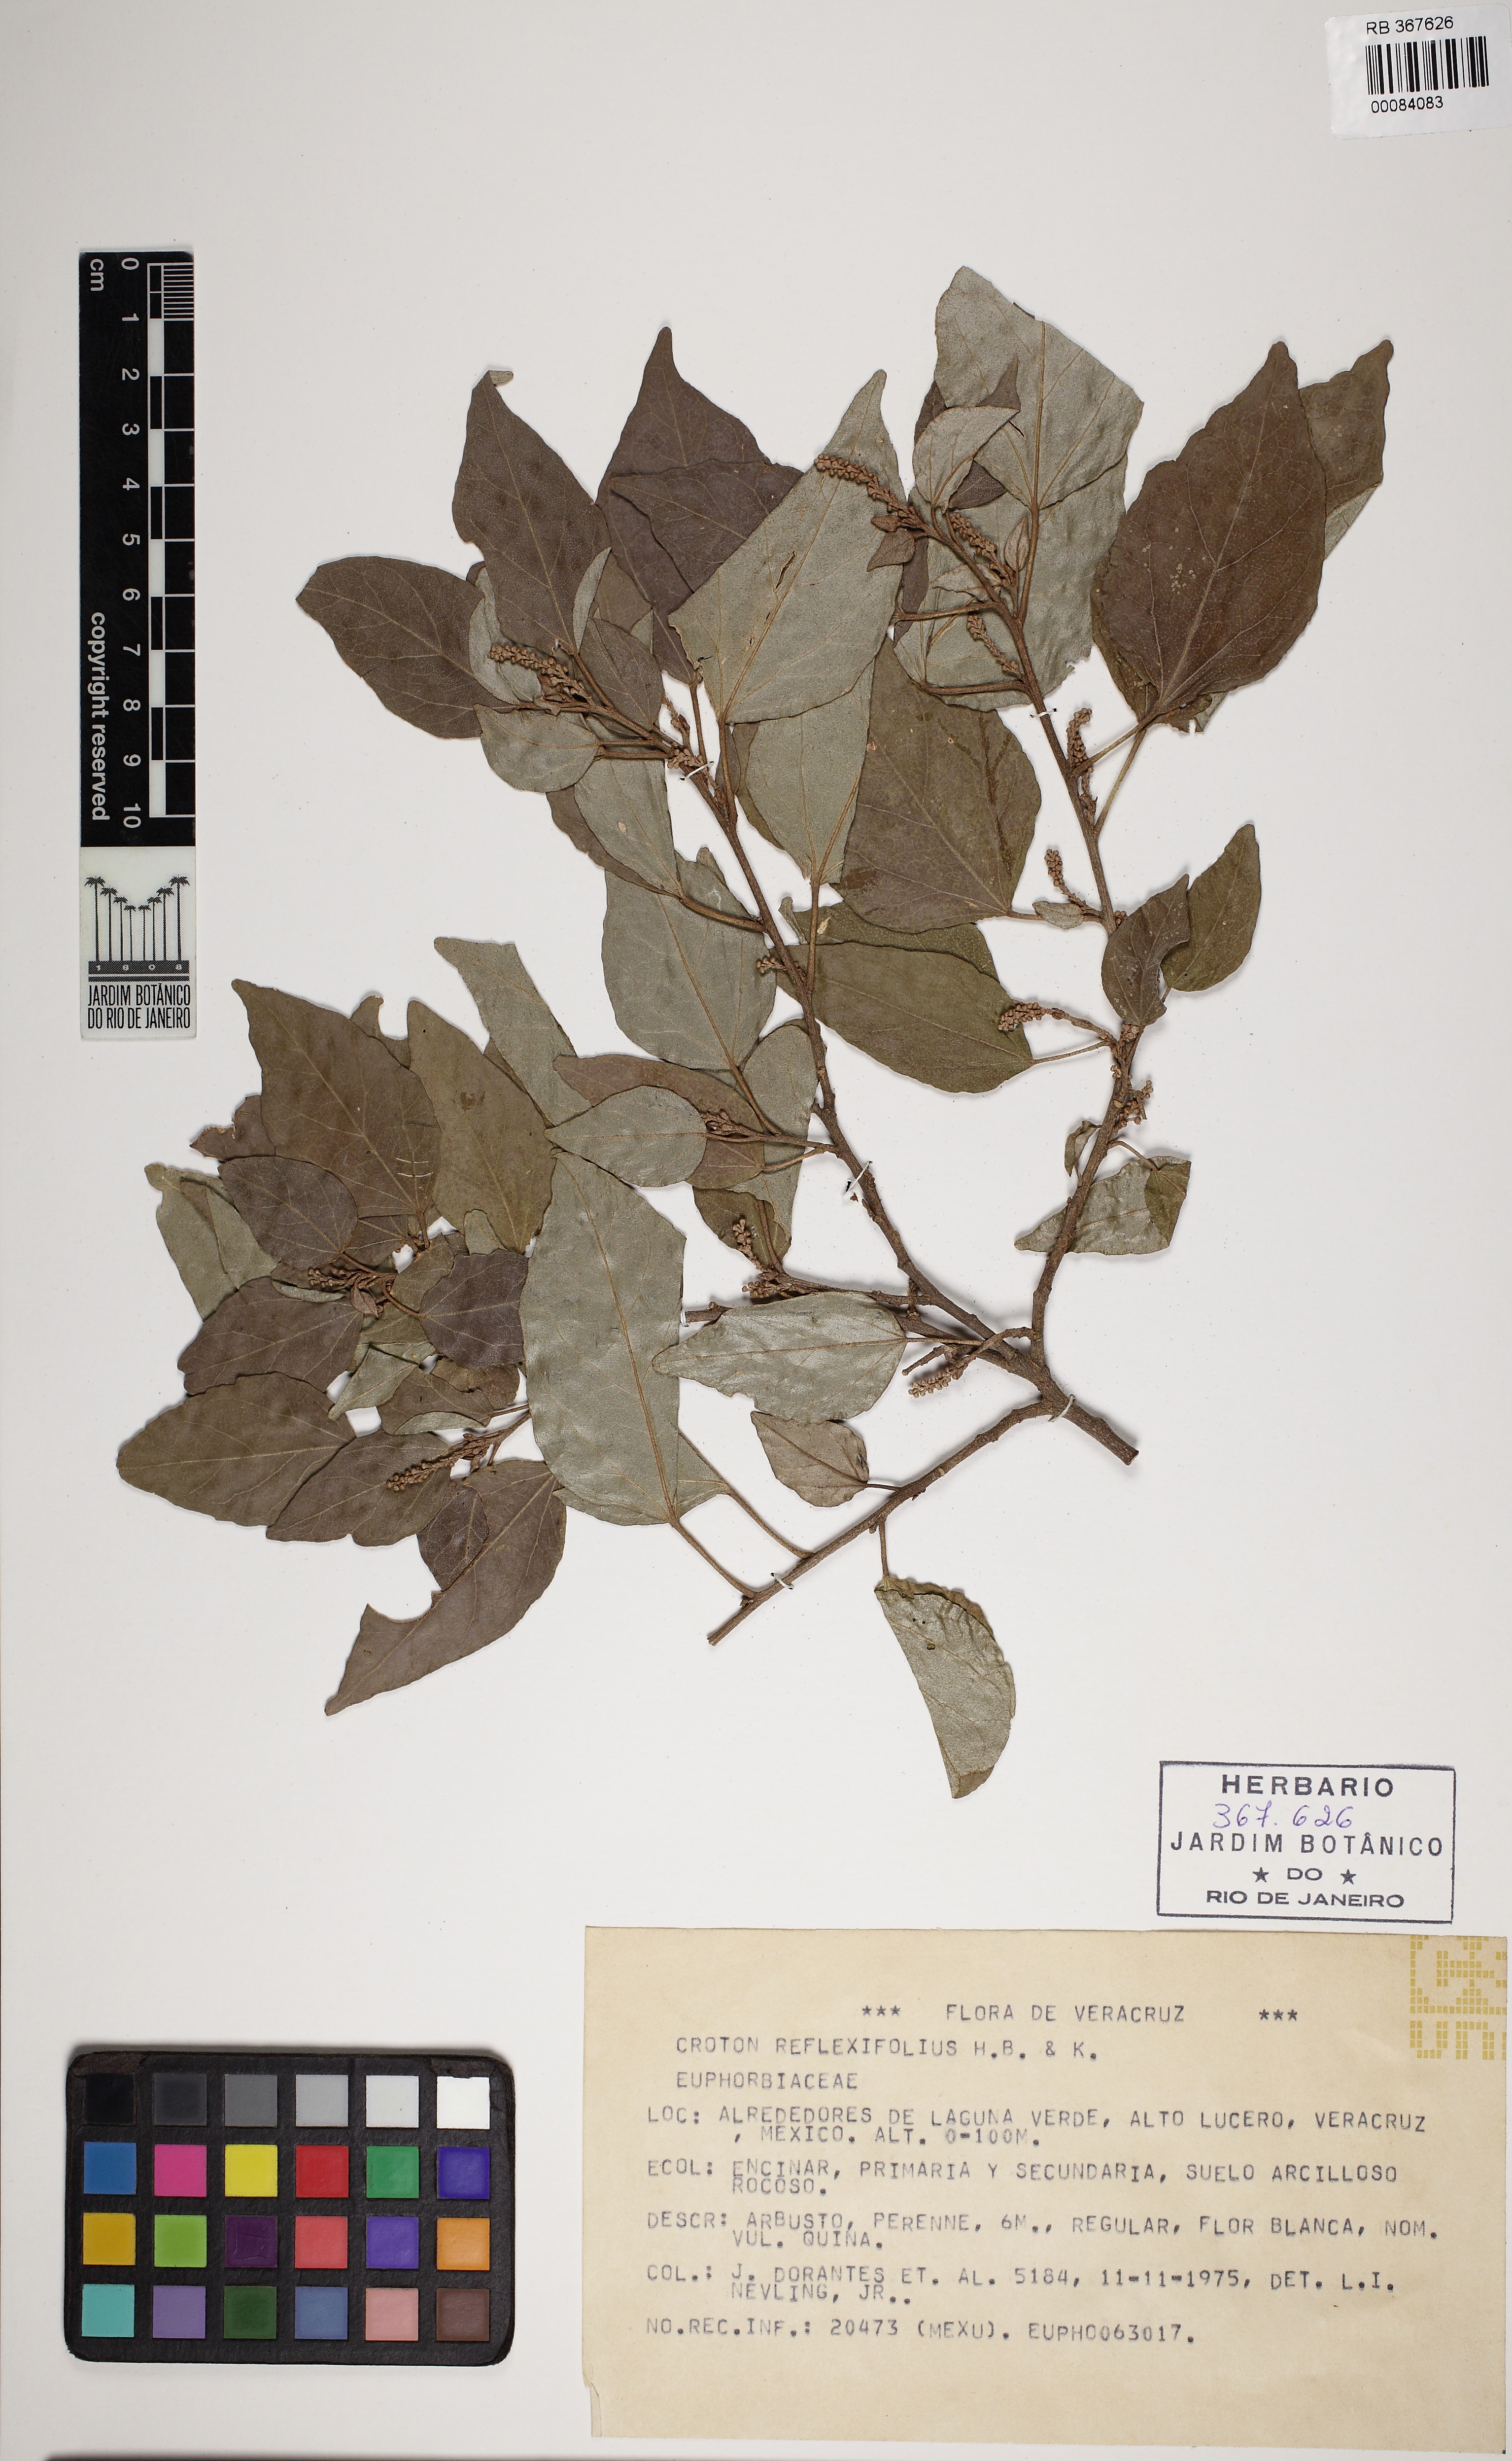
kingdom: Plantae
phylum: Tracheophyta
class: Magnoliopsida
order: Malpighiales
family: Euphorbiaceae
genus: Croton
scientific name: Croton reflexifolius
